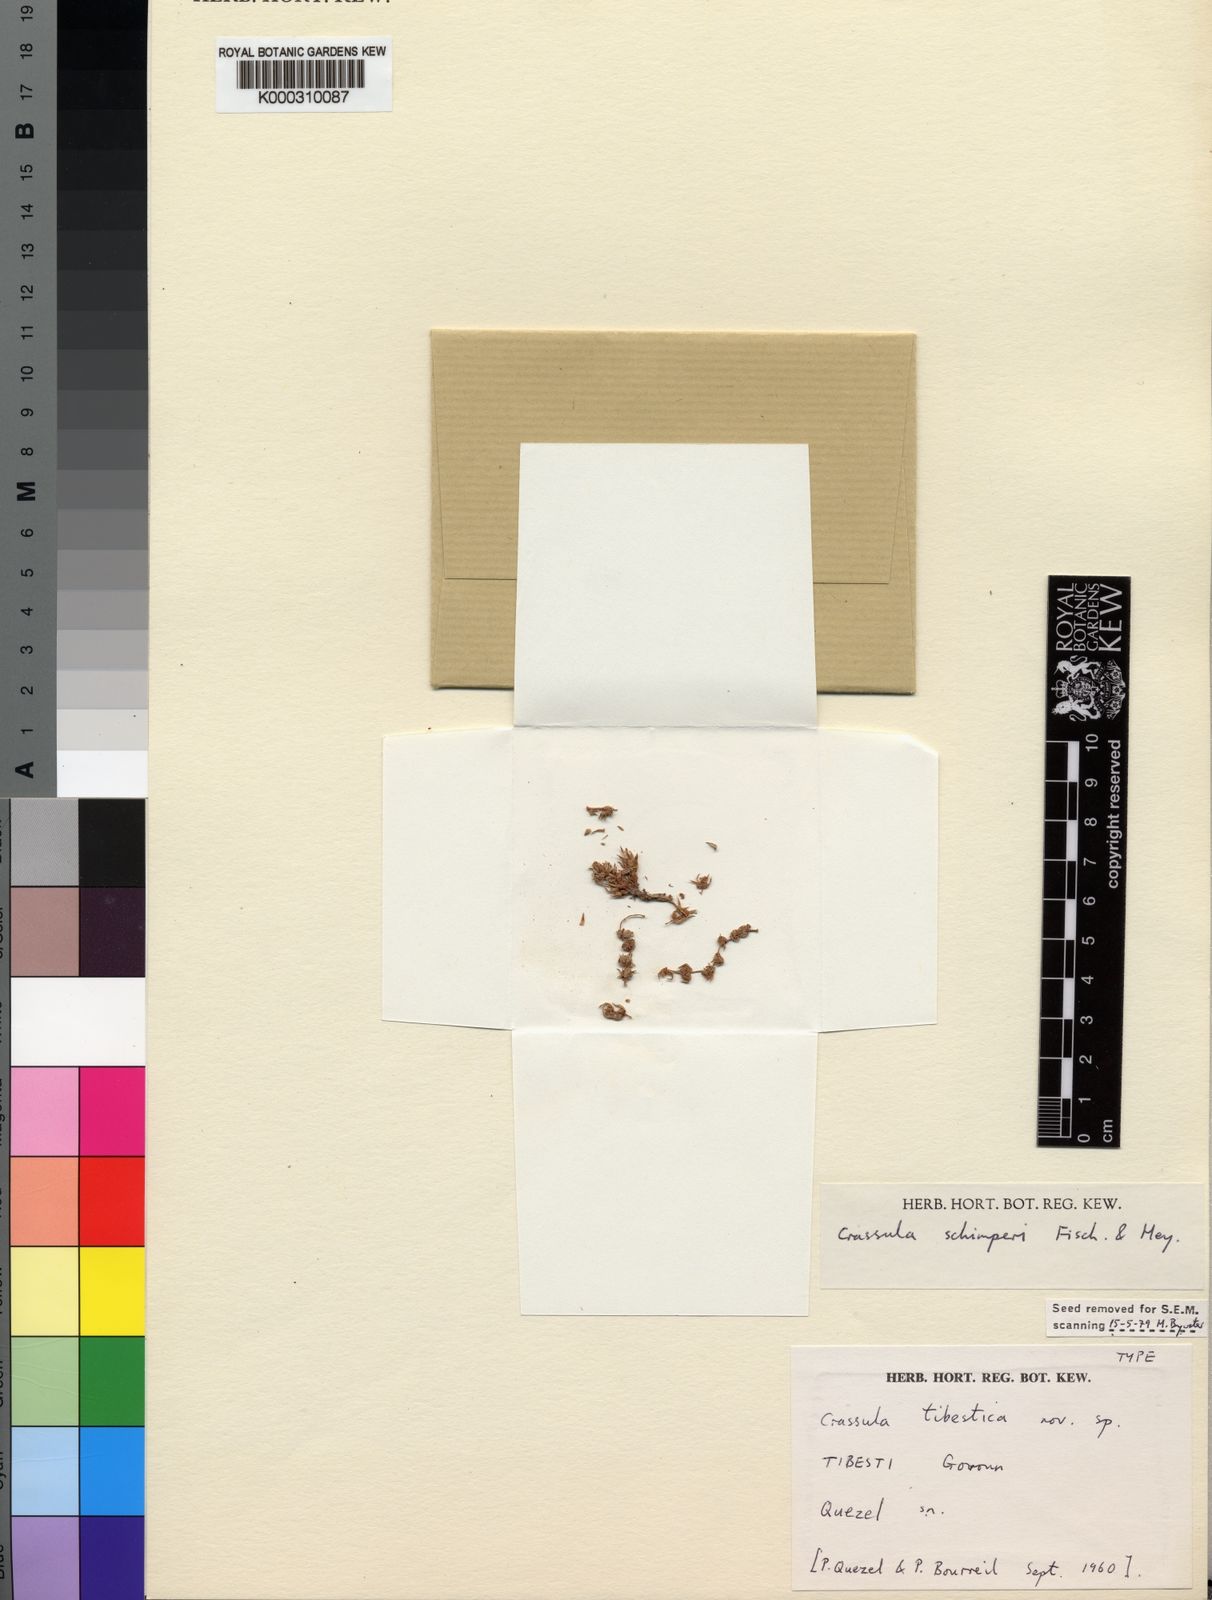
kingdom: Plantae
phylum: Tracheophyta
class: Magnoliopsida
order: Saxifragales
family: Crassulaceae
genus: Crassula
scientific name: Crassula schimperi
